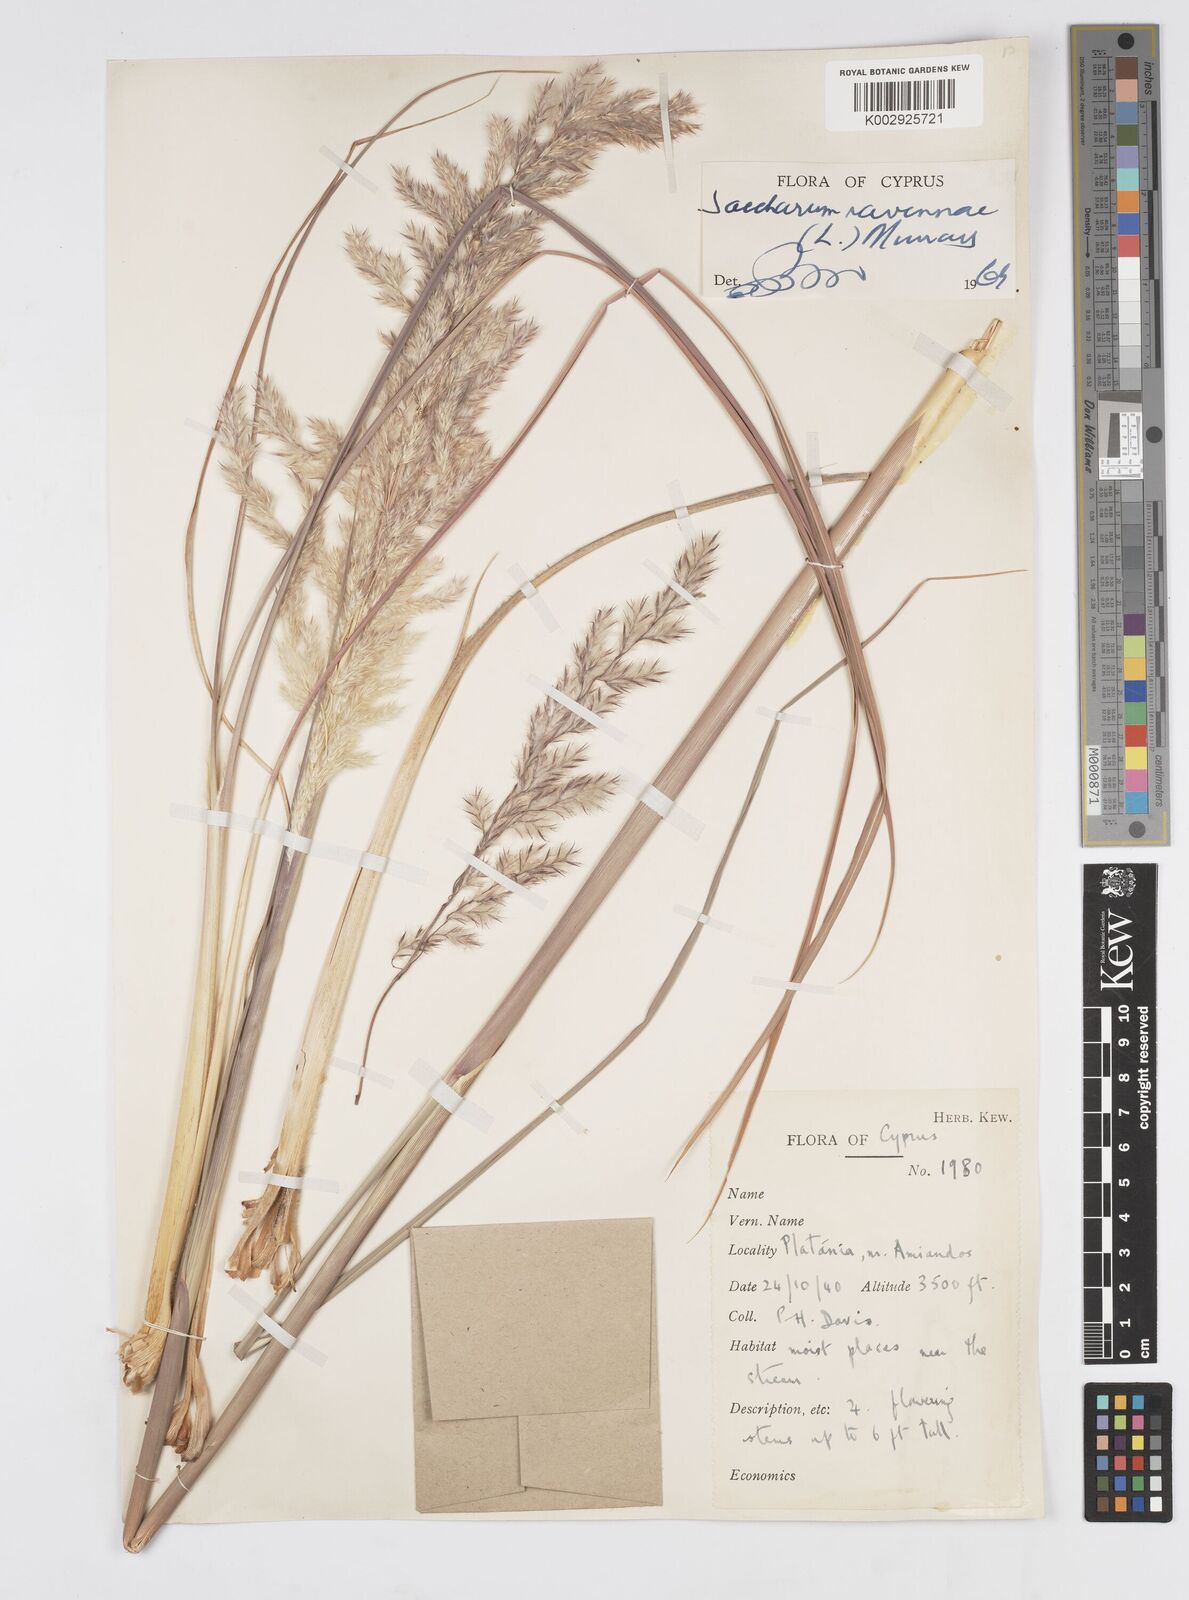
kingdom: Plantae
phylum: Tracheophyta
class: Liliopsida
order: Poales
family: Poaceae
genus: Tripidium
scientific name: Tripidium ravennae
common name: Ravenna grass
